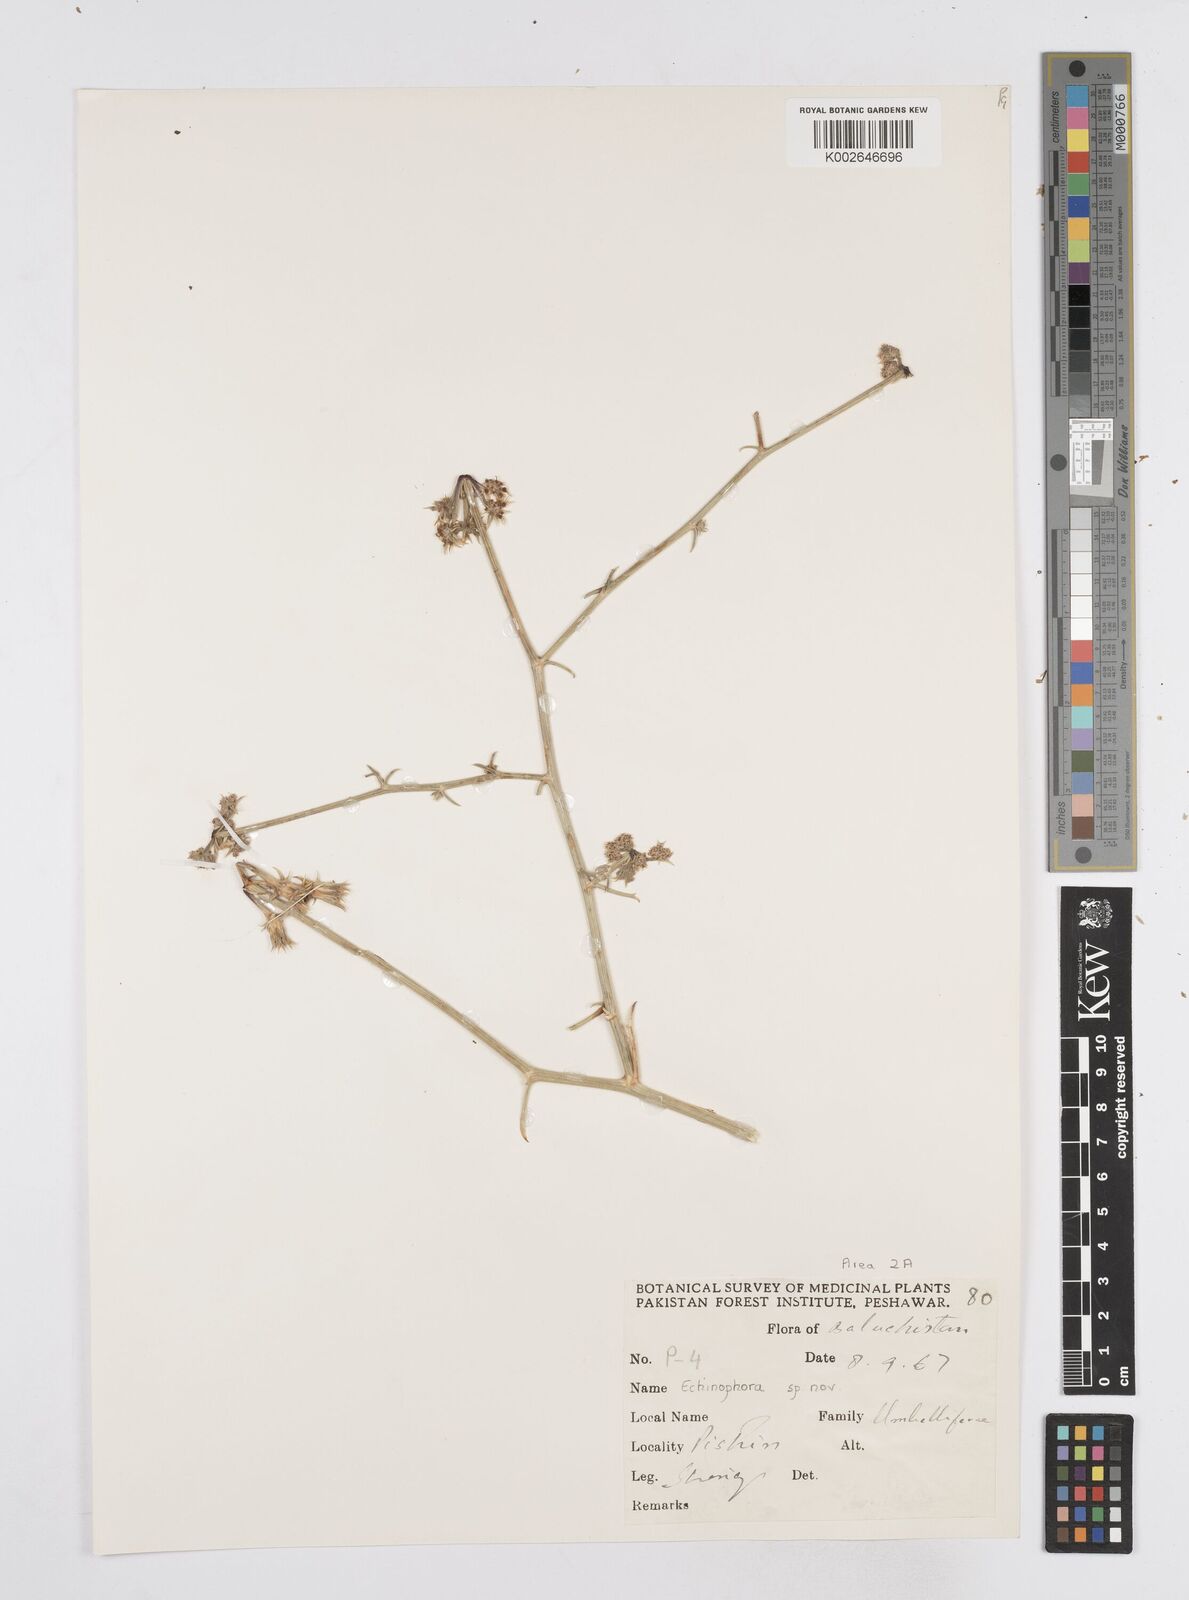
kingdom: Plantae
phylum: Tracheophyta
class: Magnoliopsida
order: Apiales
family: Apiaceae
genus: Echinophora
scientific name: Echinophora
